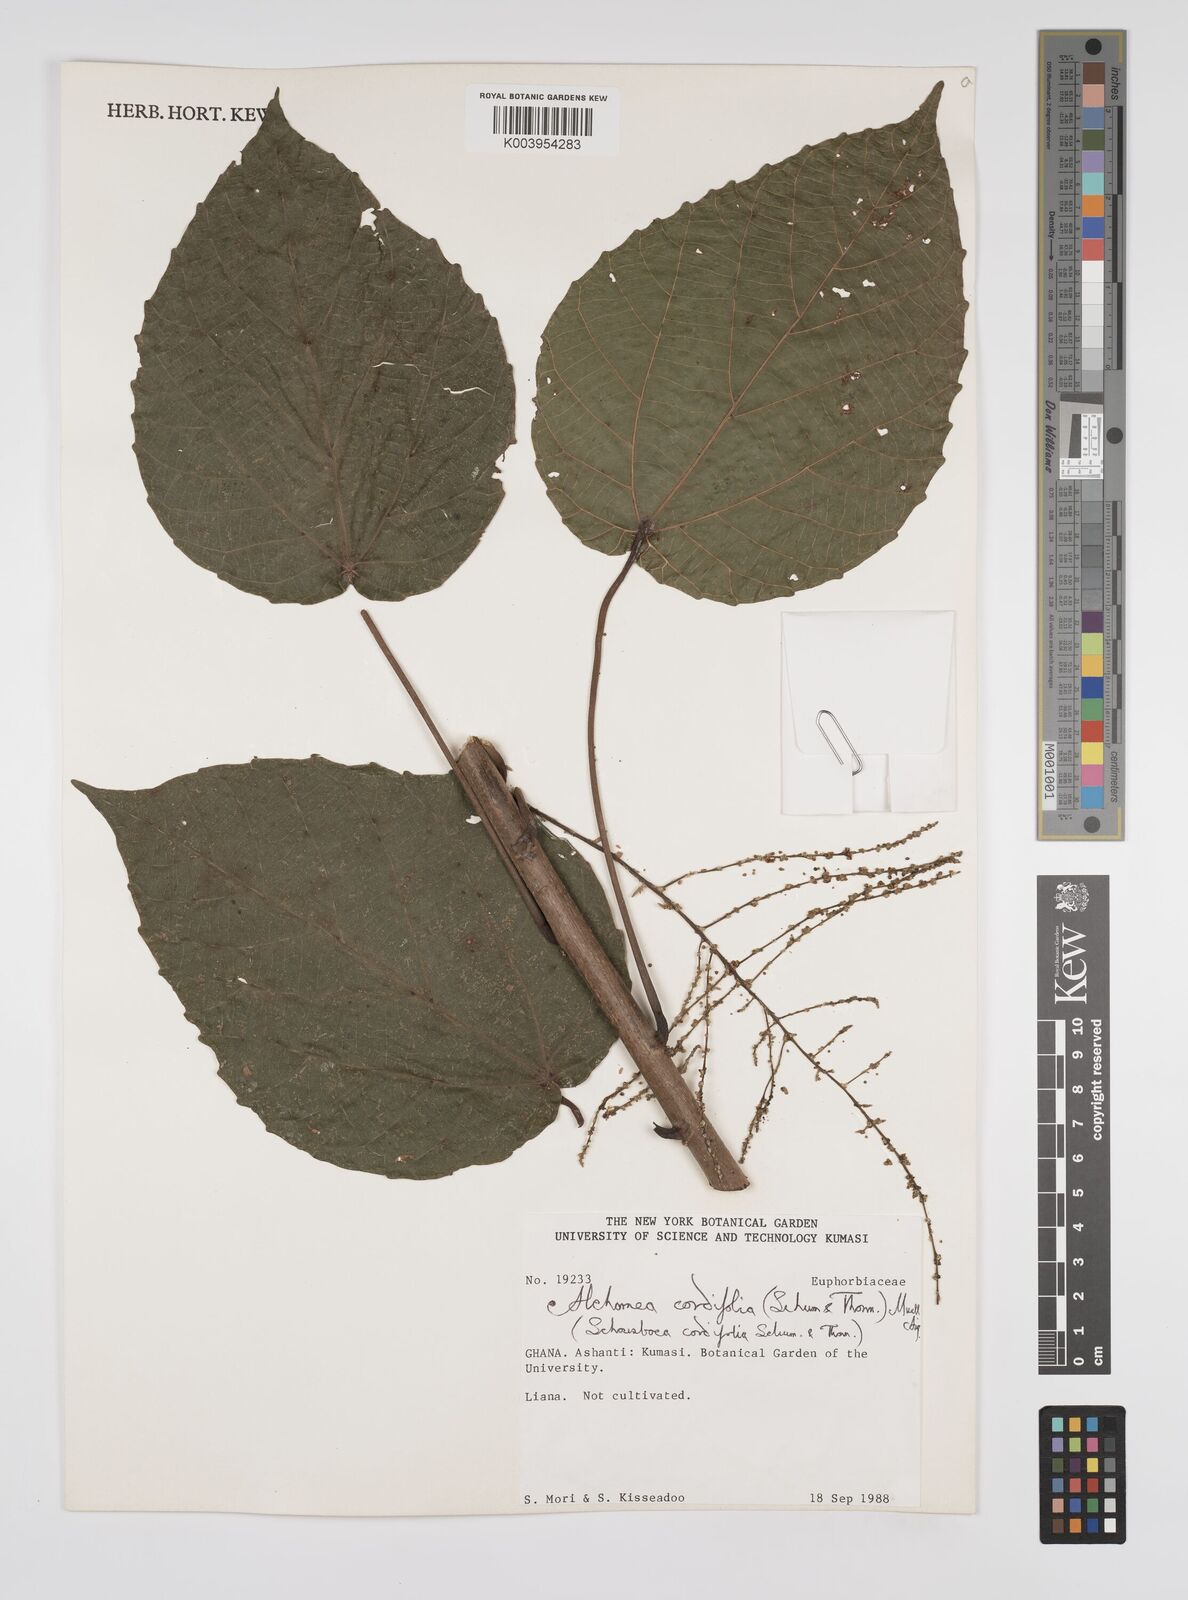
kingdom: Plantae
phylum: Tracheophyta
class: Magnoliopsida
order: Malpighiales
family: Euphorbiaceae
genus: Alchornea
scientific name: Alchornea cordifolia
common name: Christmasbush
